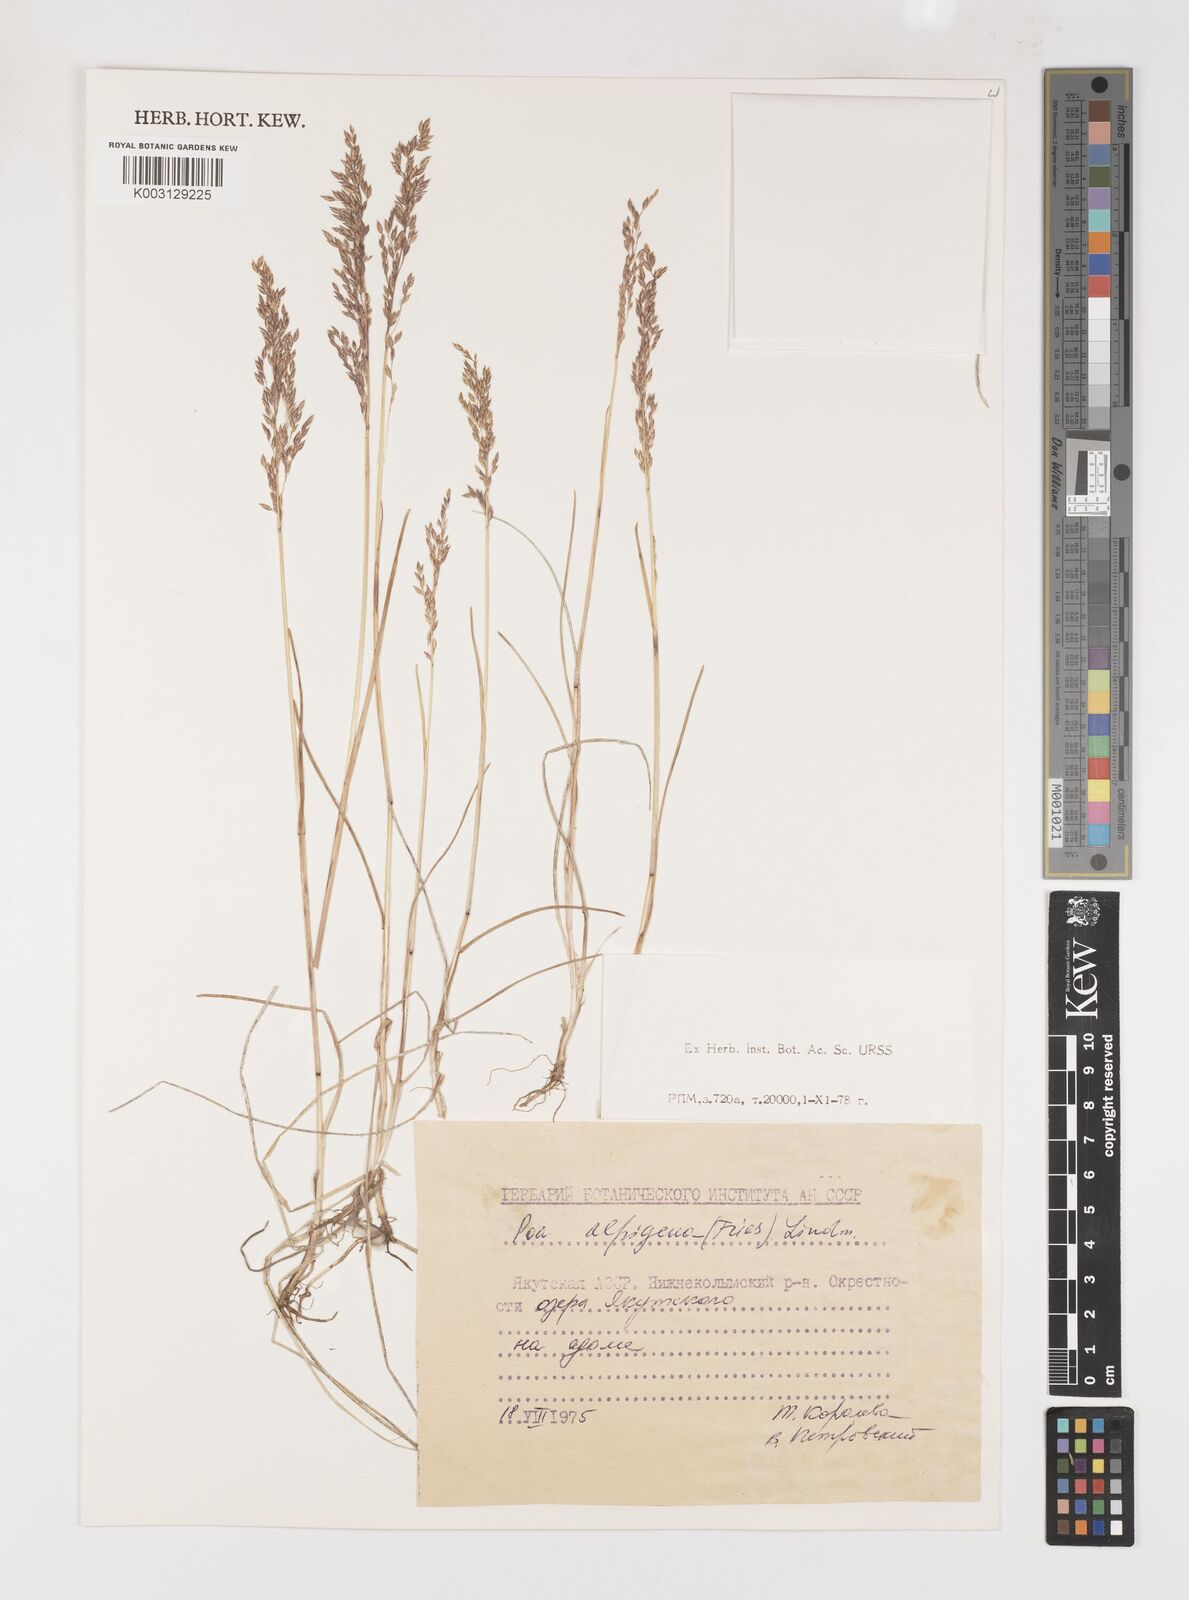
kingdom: Plantae
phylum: Tracheophyta
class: Liliopsida
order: Poales
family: Poaceae
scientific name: Poaceae
